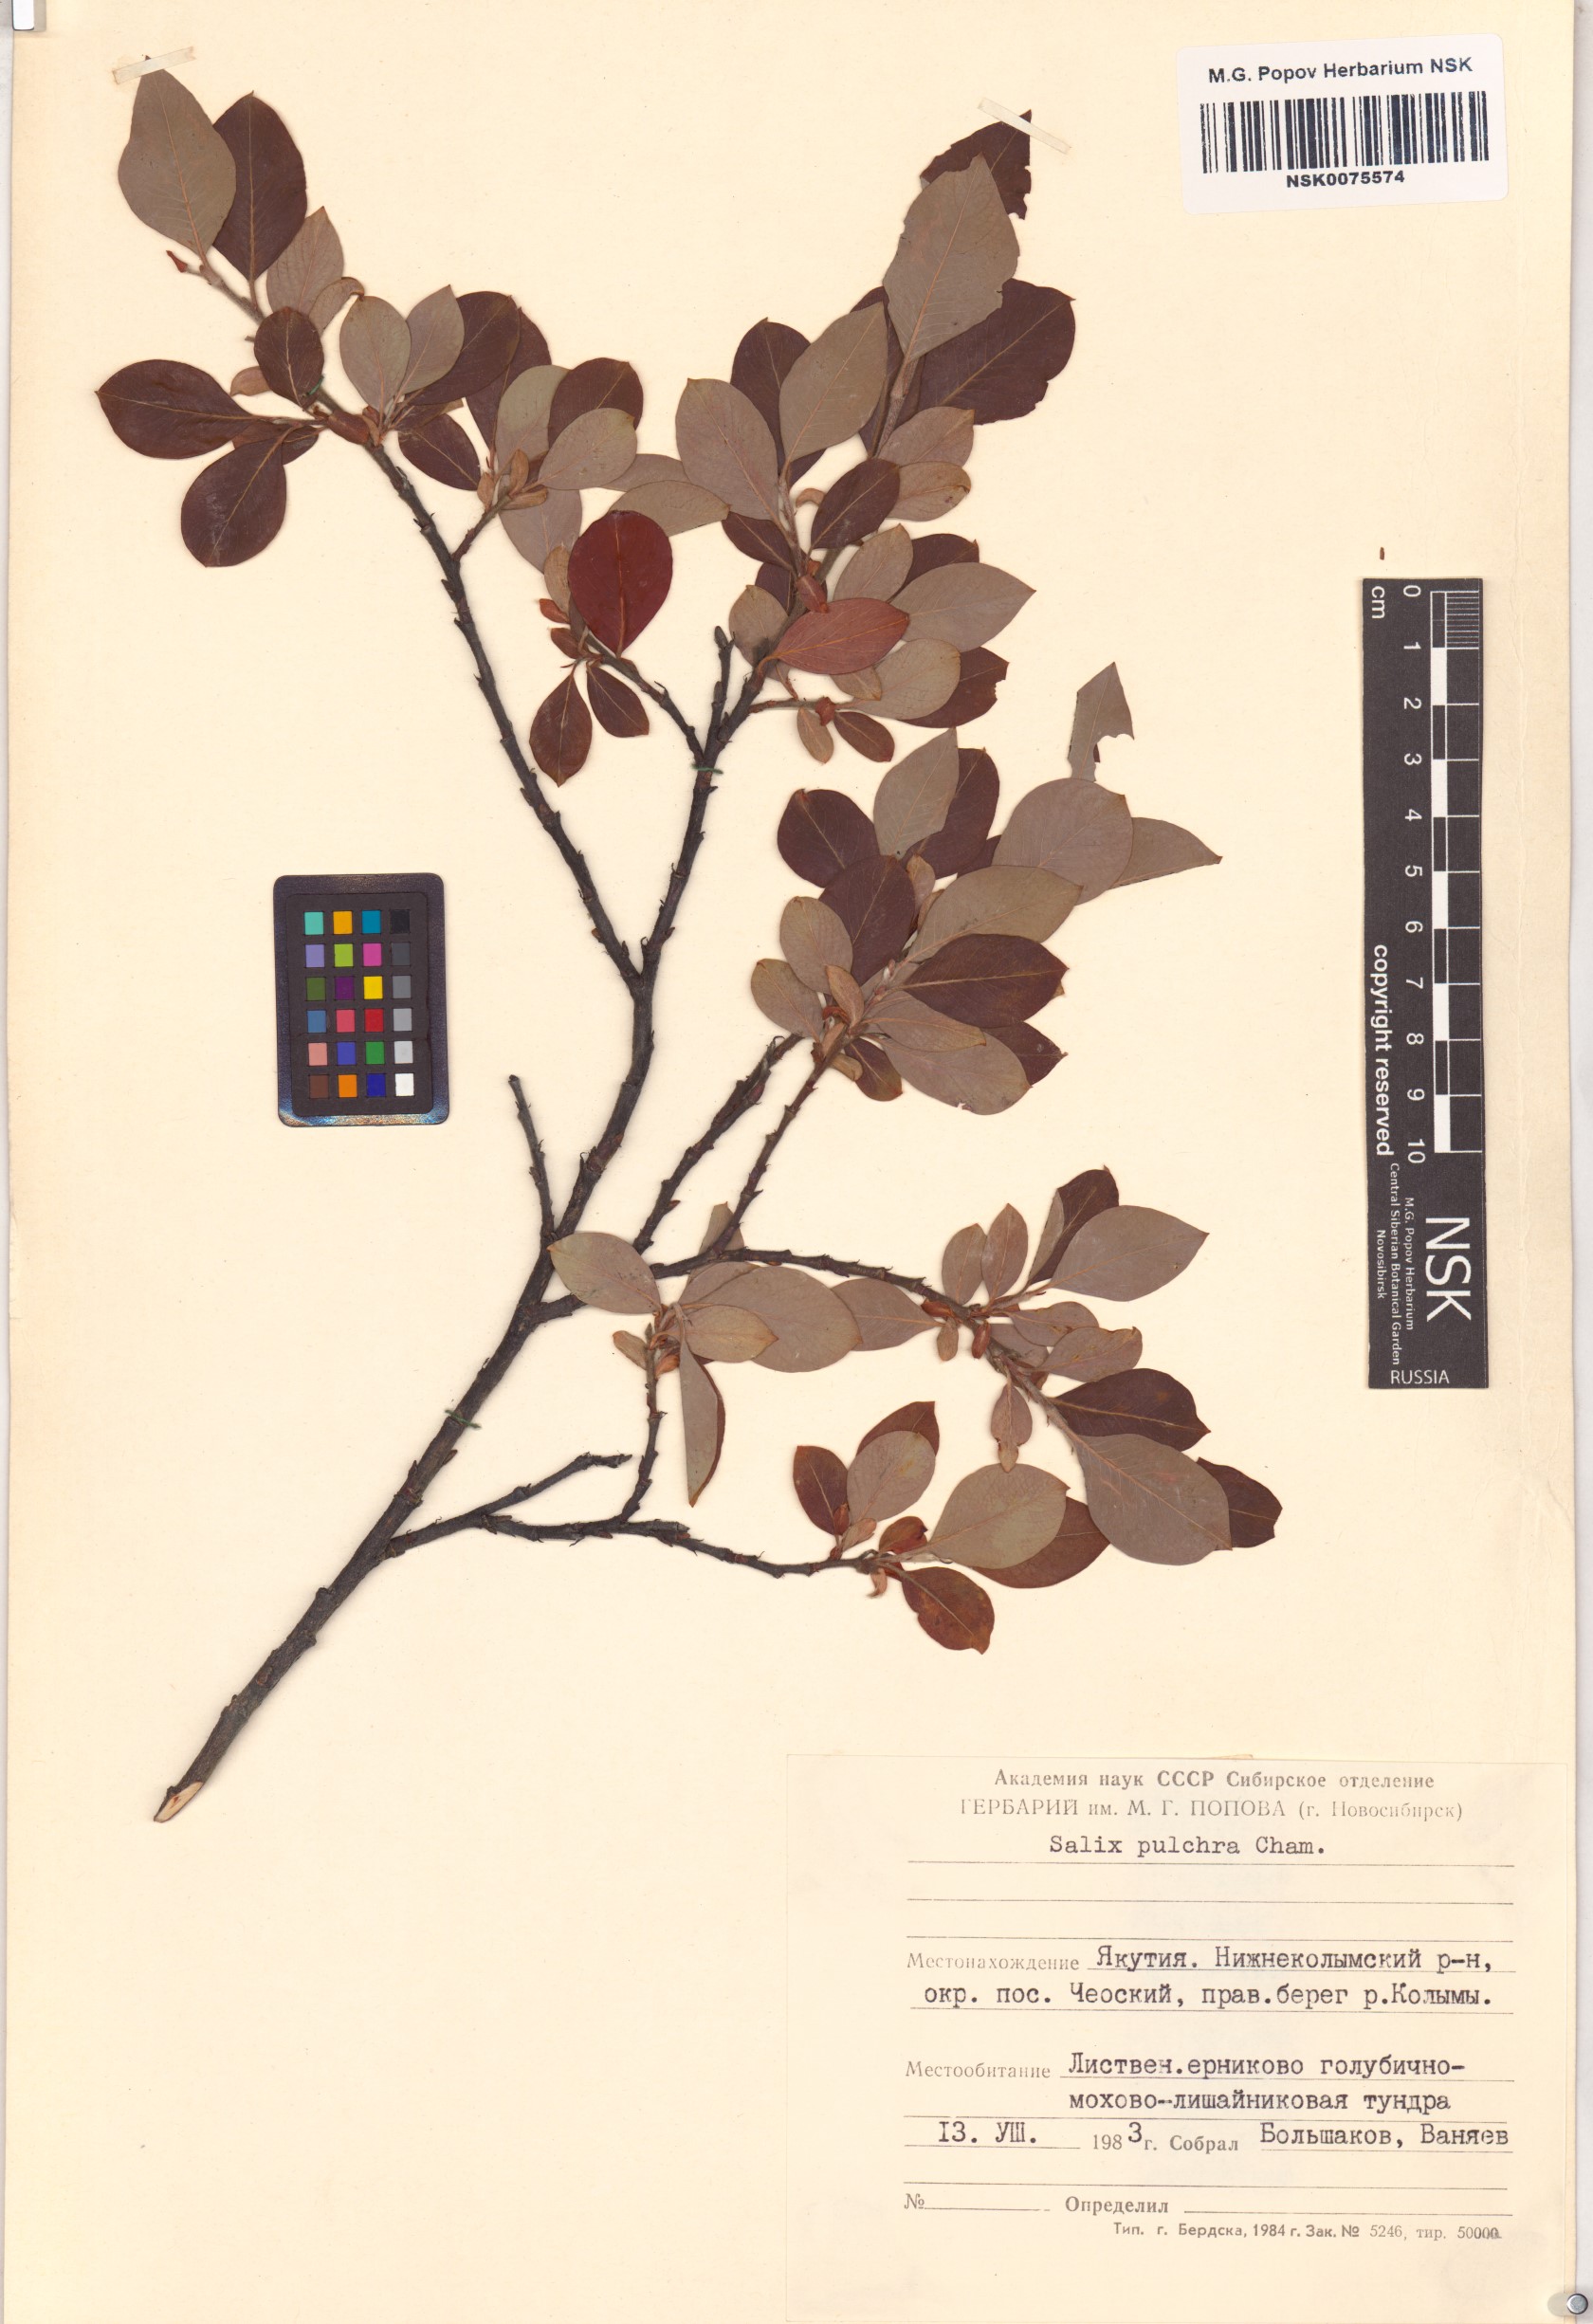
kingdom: Plantae
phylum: Tracheophyta
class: Magnoliopsida
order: Malpighiales
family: Salicaceae
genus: Salix
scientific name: Salix pulchra
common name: Diamond-leaved willow
